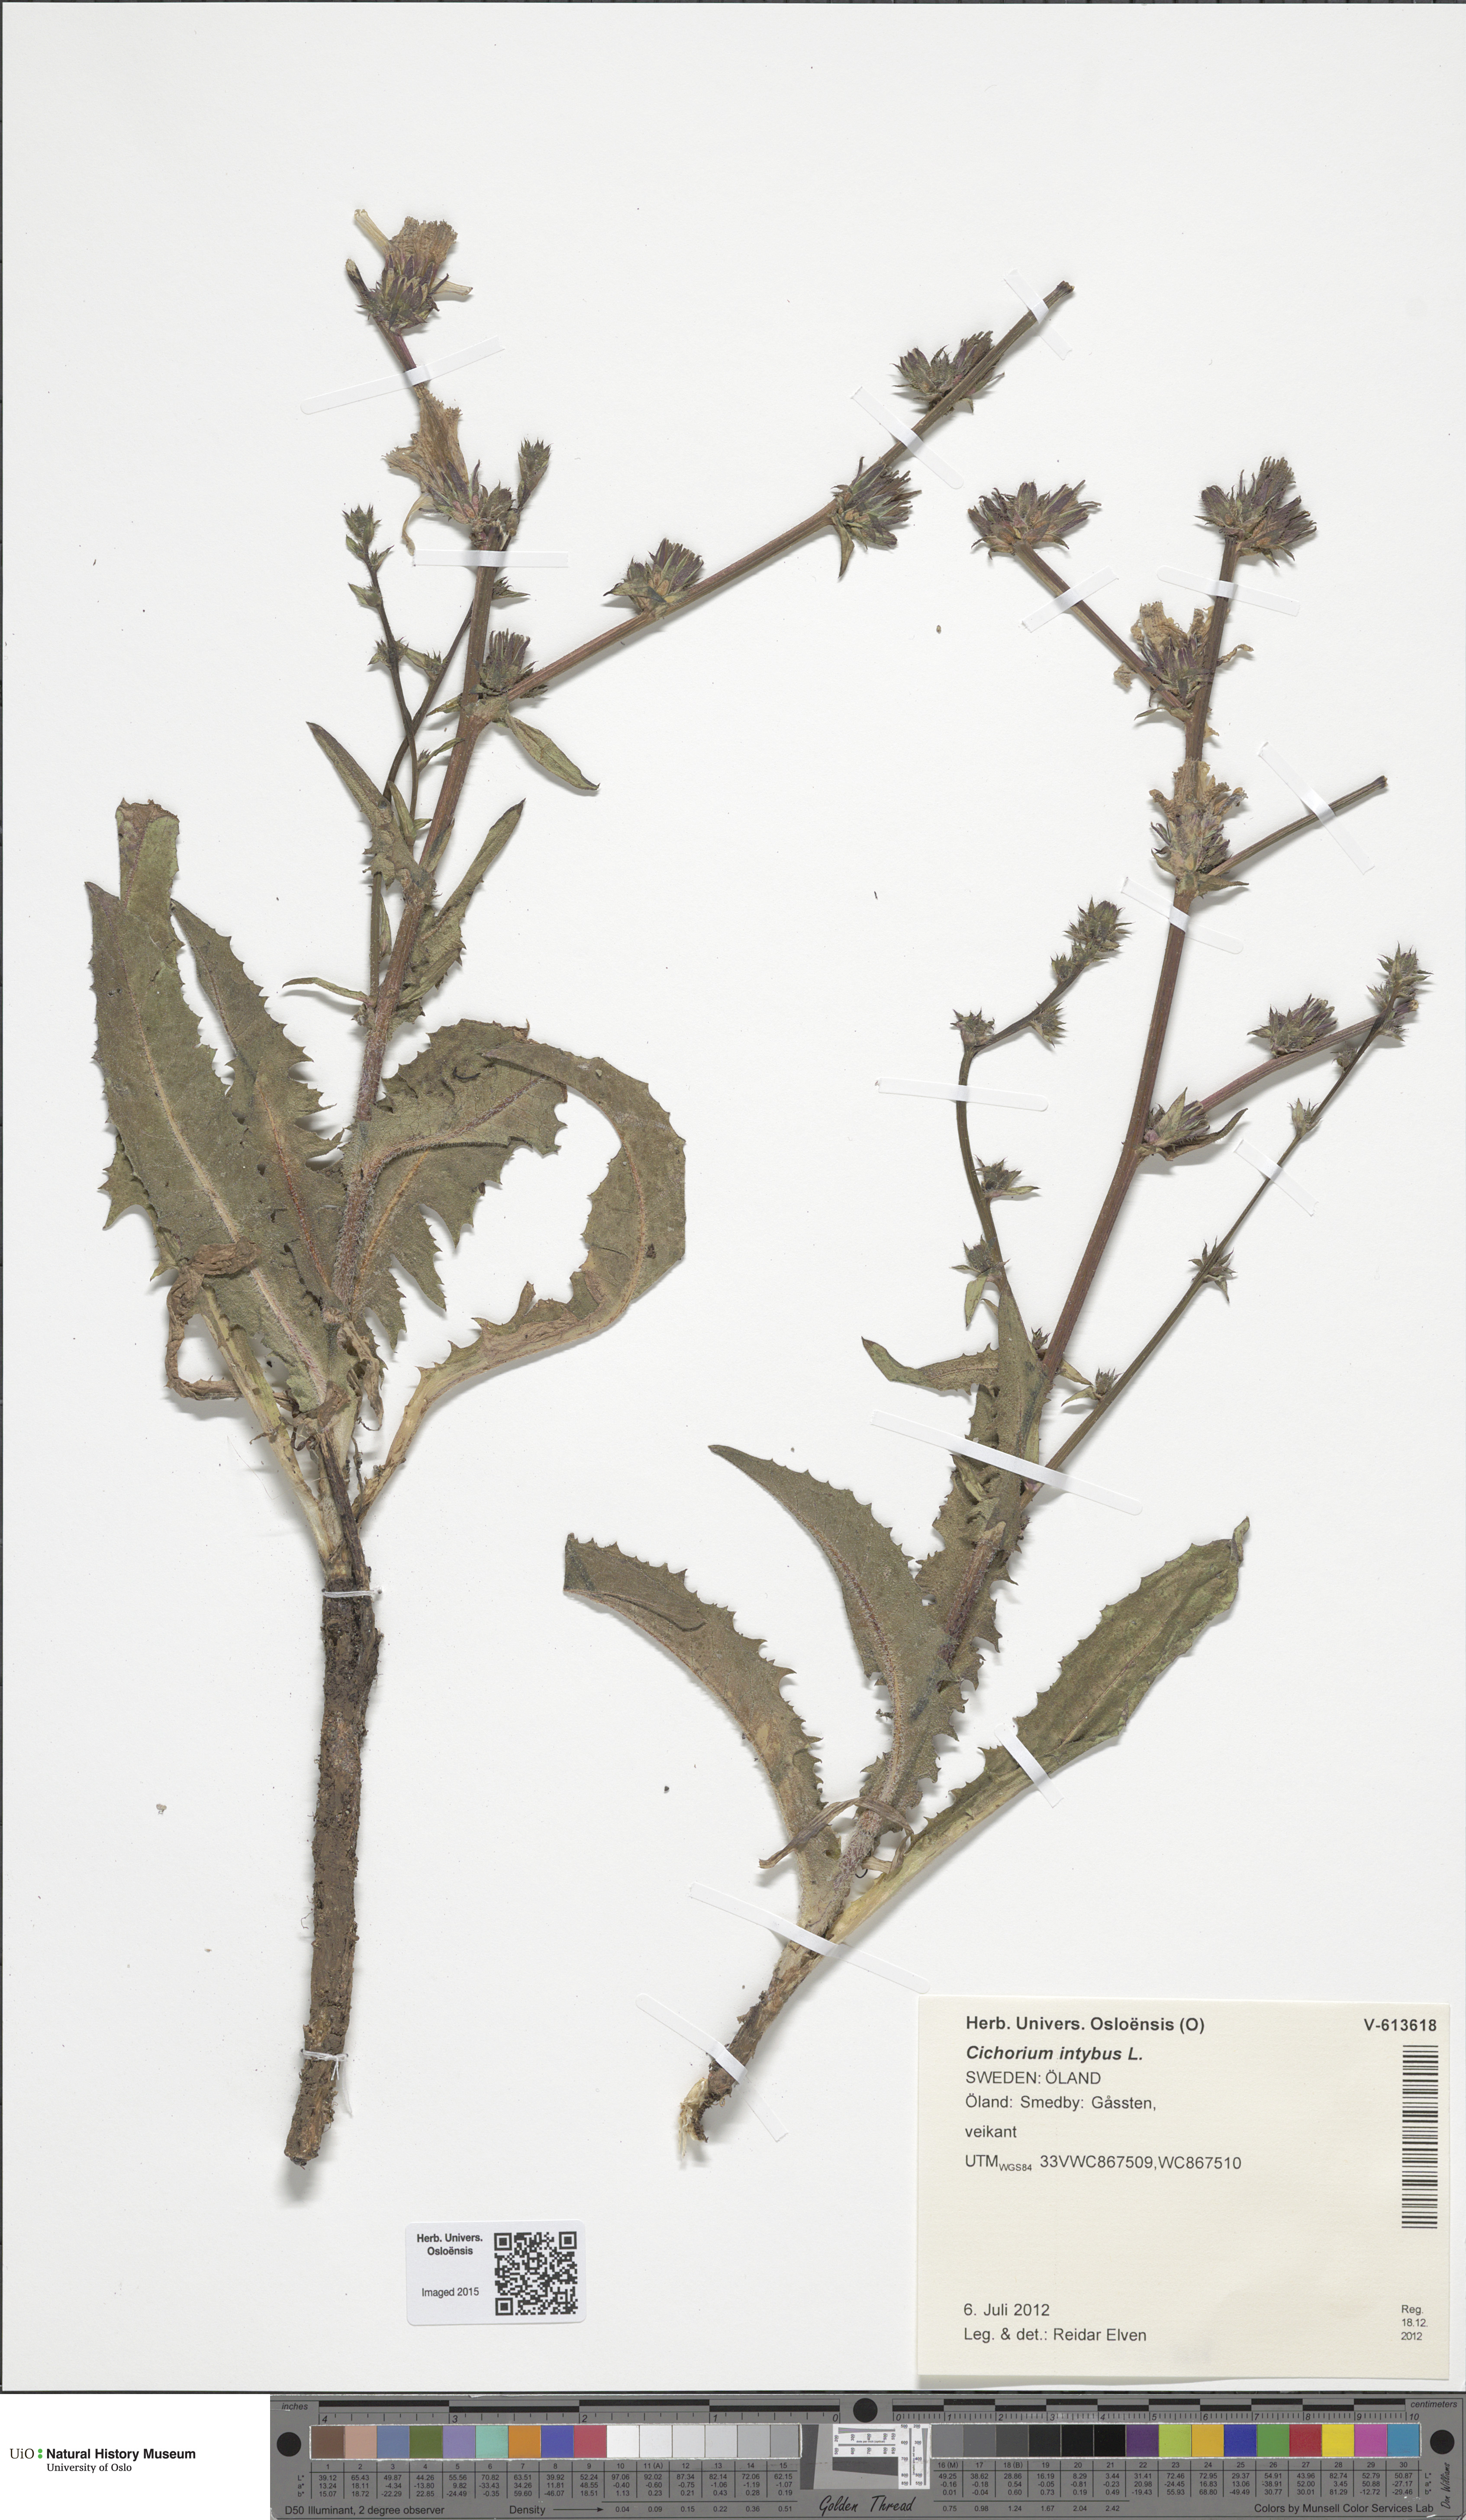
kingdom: Plantae
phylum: Tracheophyta
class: Magnoliopsida
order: Asterales
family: Asteraceae
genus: Cichorium
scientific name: Cichorium intybus
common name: Chicory
